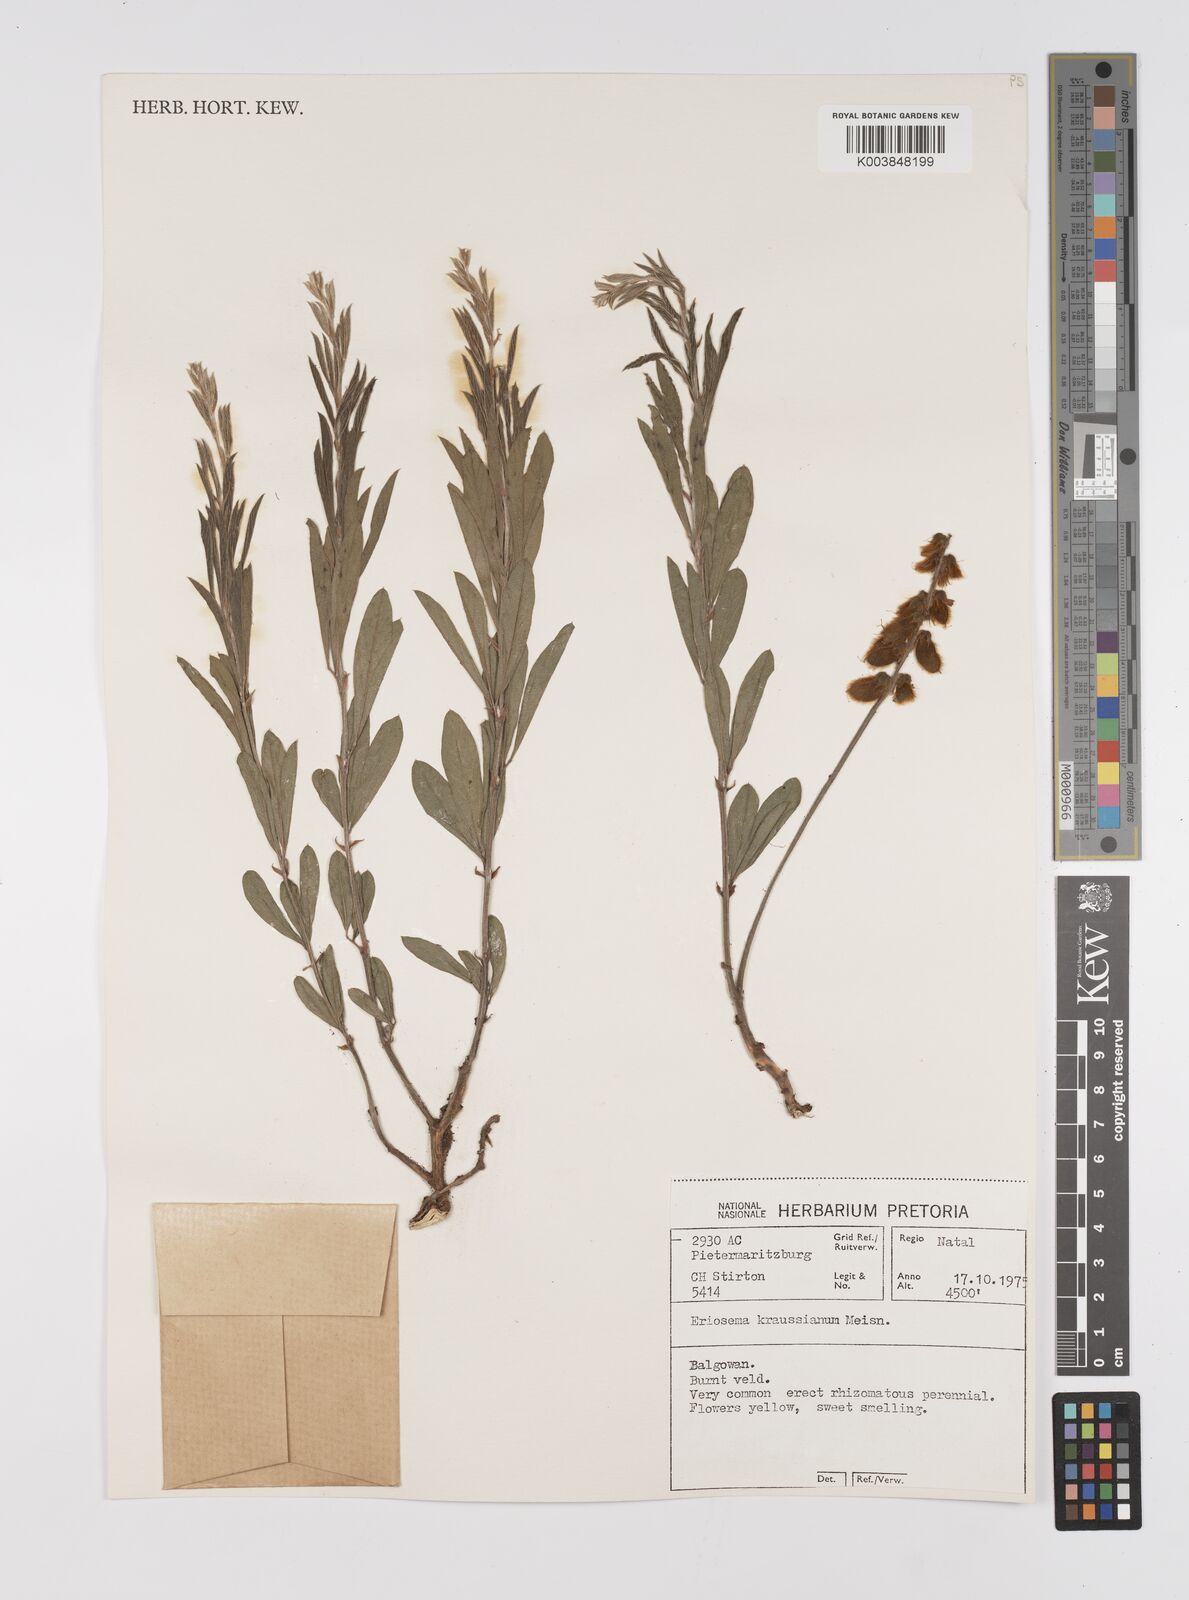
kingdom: Plantae
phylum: Tracheophyta
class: Magnoliopsida
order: Fabales
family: Fabaceae
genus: Eriosema
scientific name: Eriosema kraussianum
